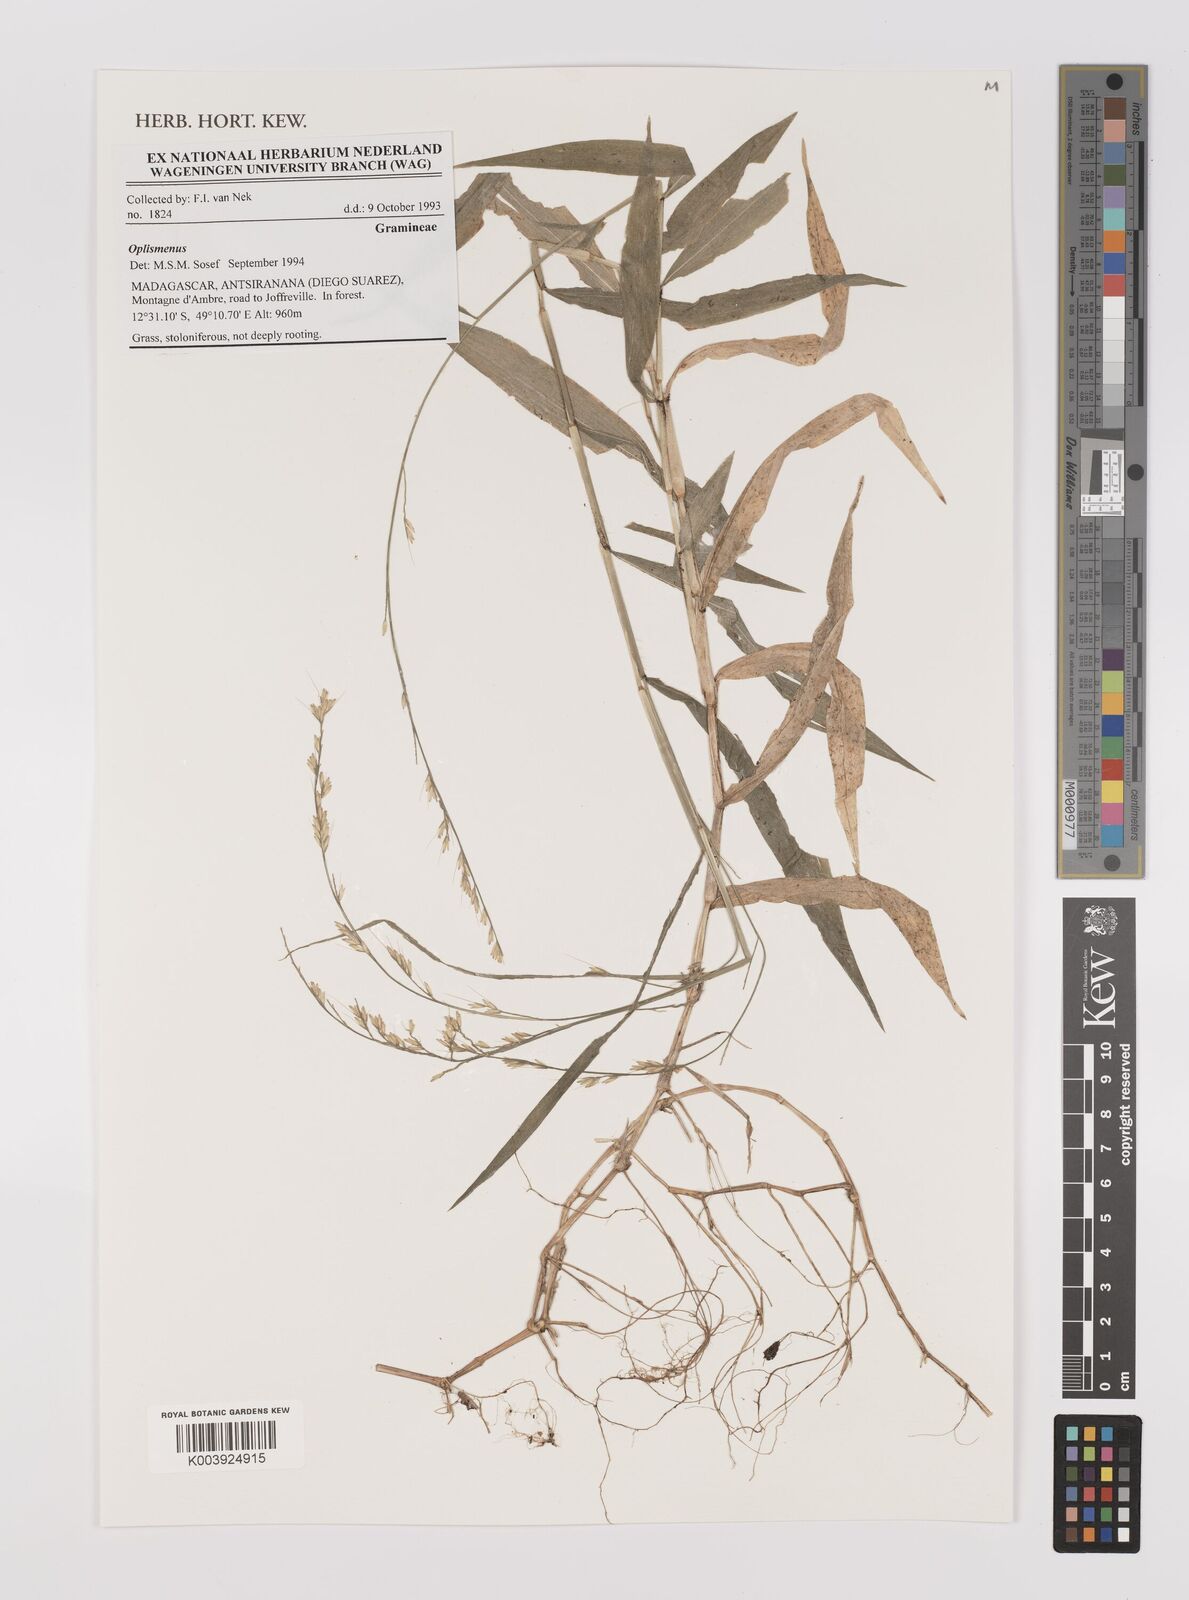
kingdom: Plantae
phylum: Tracheophyta
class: Liliopsida
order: Poales
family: Poaceae
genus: Oplismenus
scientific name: Oplismenus
